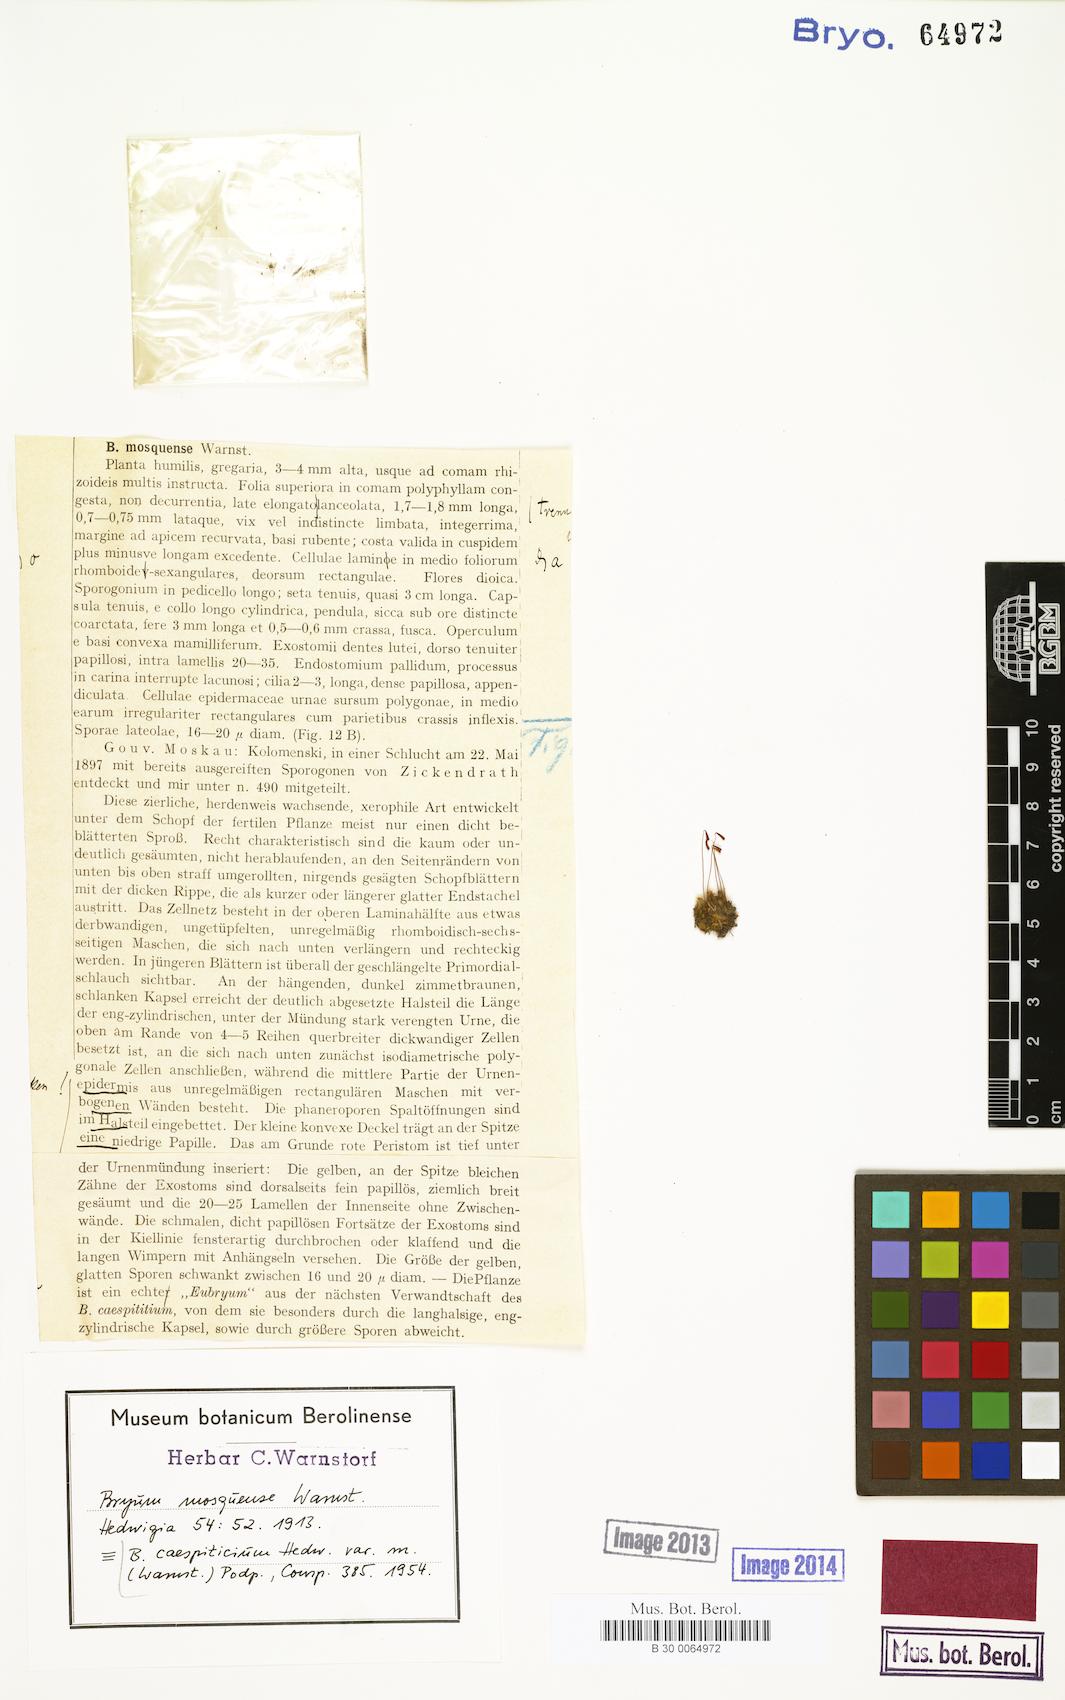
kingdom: Plantae
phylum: Bryophyta
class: Bryopsida
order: Bryales
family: Bryaceae
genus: Gemmabryum
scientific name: Gemmabryum caespiticium
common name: Handbell moss
